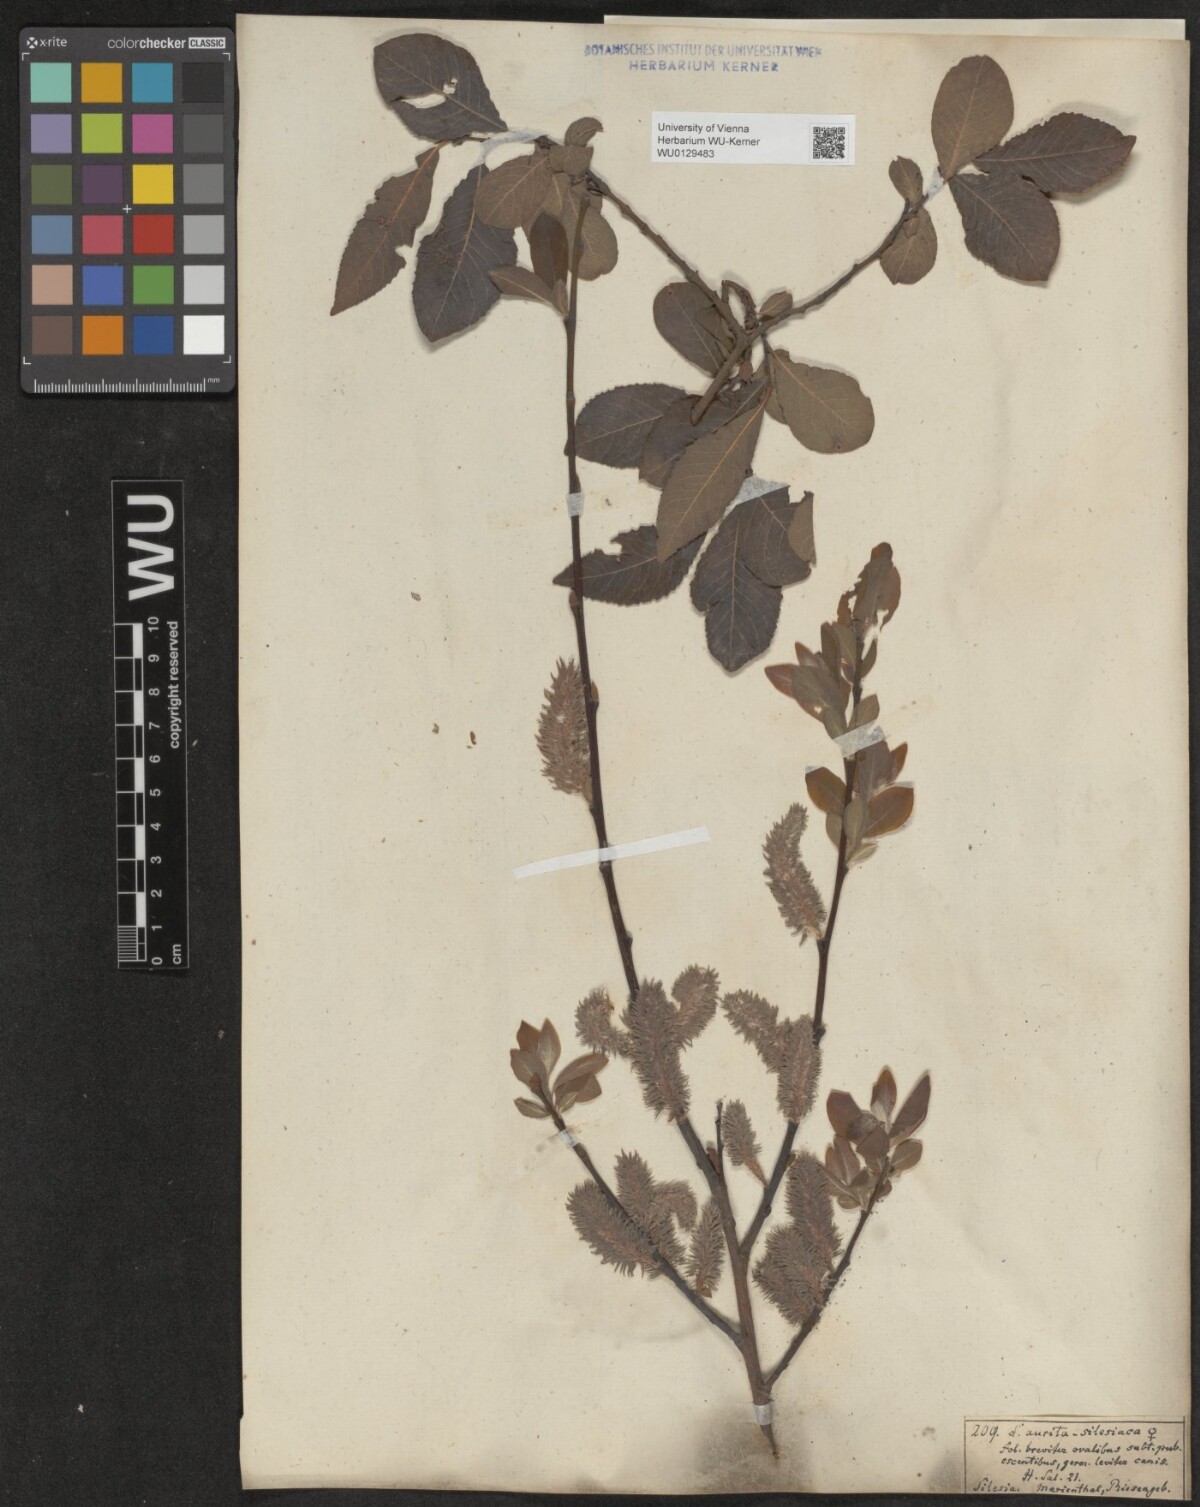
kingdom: Plantae
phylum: Tracheophyta
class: Magnoliopsida
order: Malpighiales
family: Salicaceae
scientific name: Salicaceae
